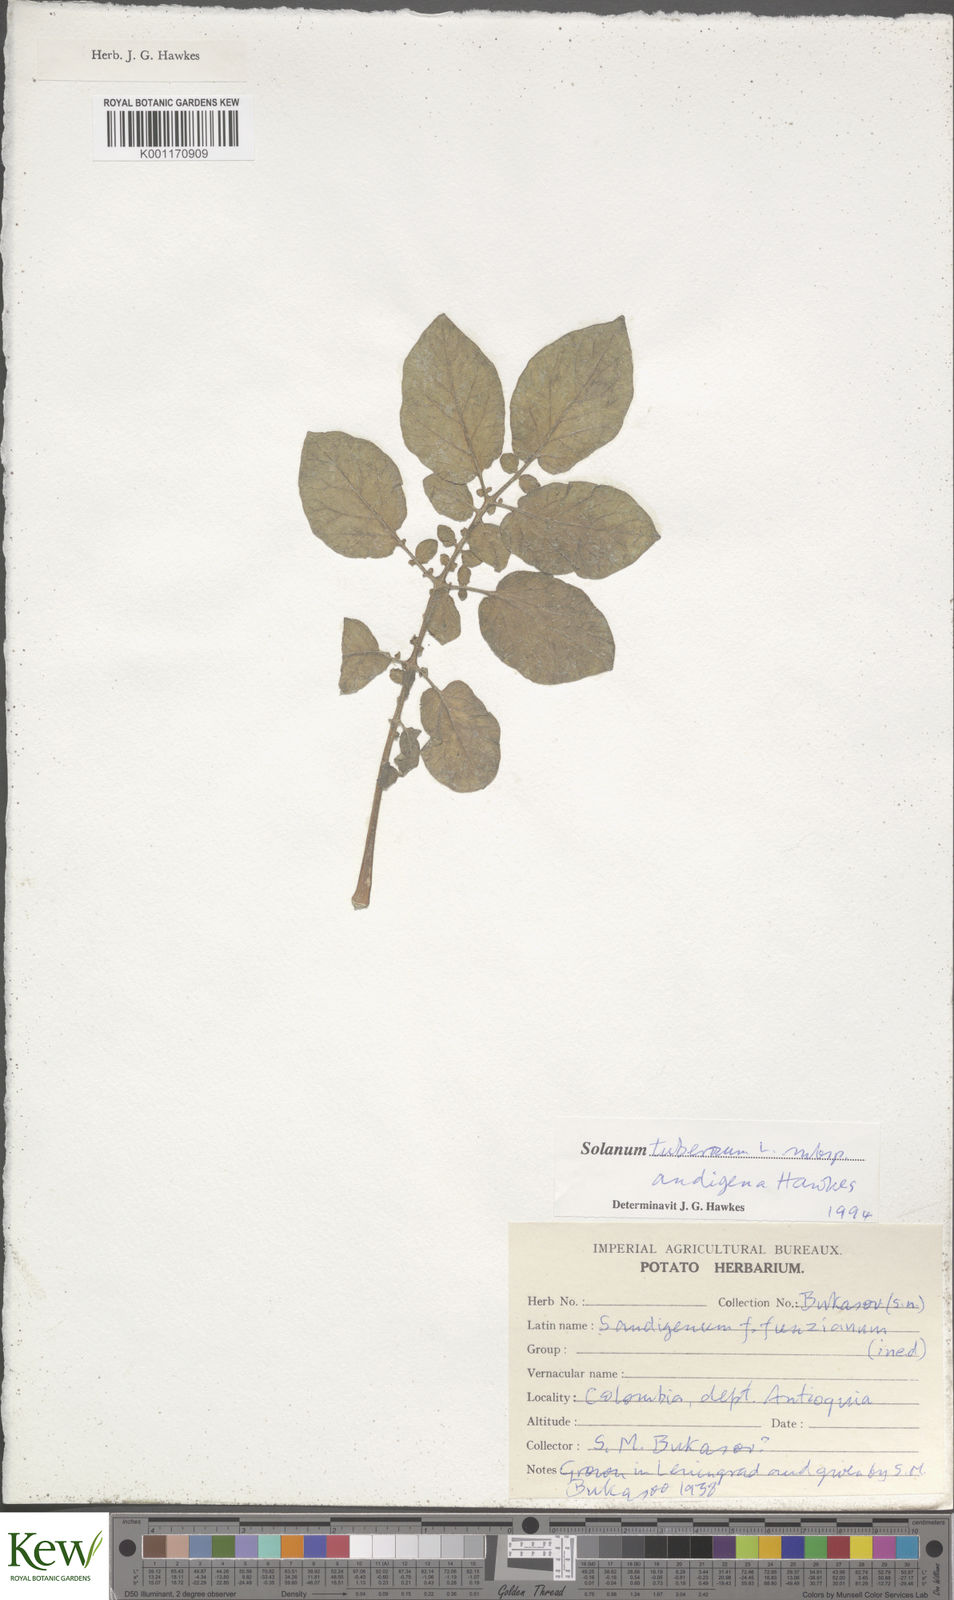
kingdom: Plantae
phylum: Tracheophyta
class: Magnoliopsida
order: Solanales
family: Solanaceae
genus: Solanum
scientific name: Solanum tuberosum
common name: Potato
